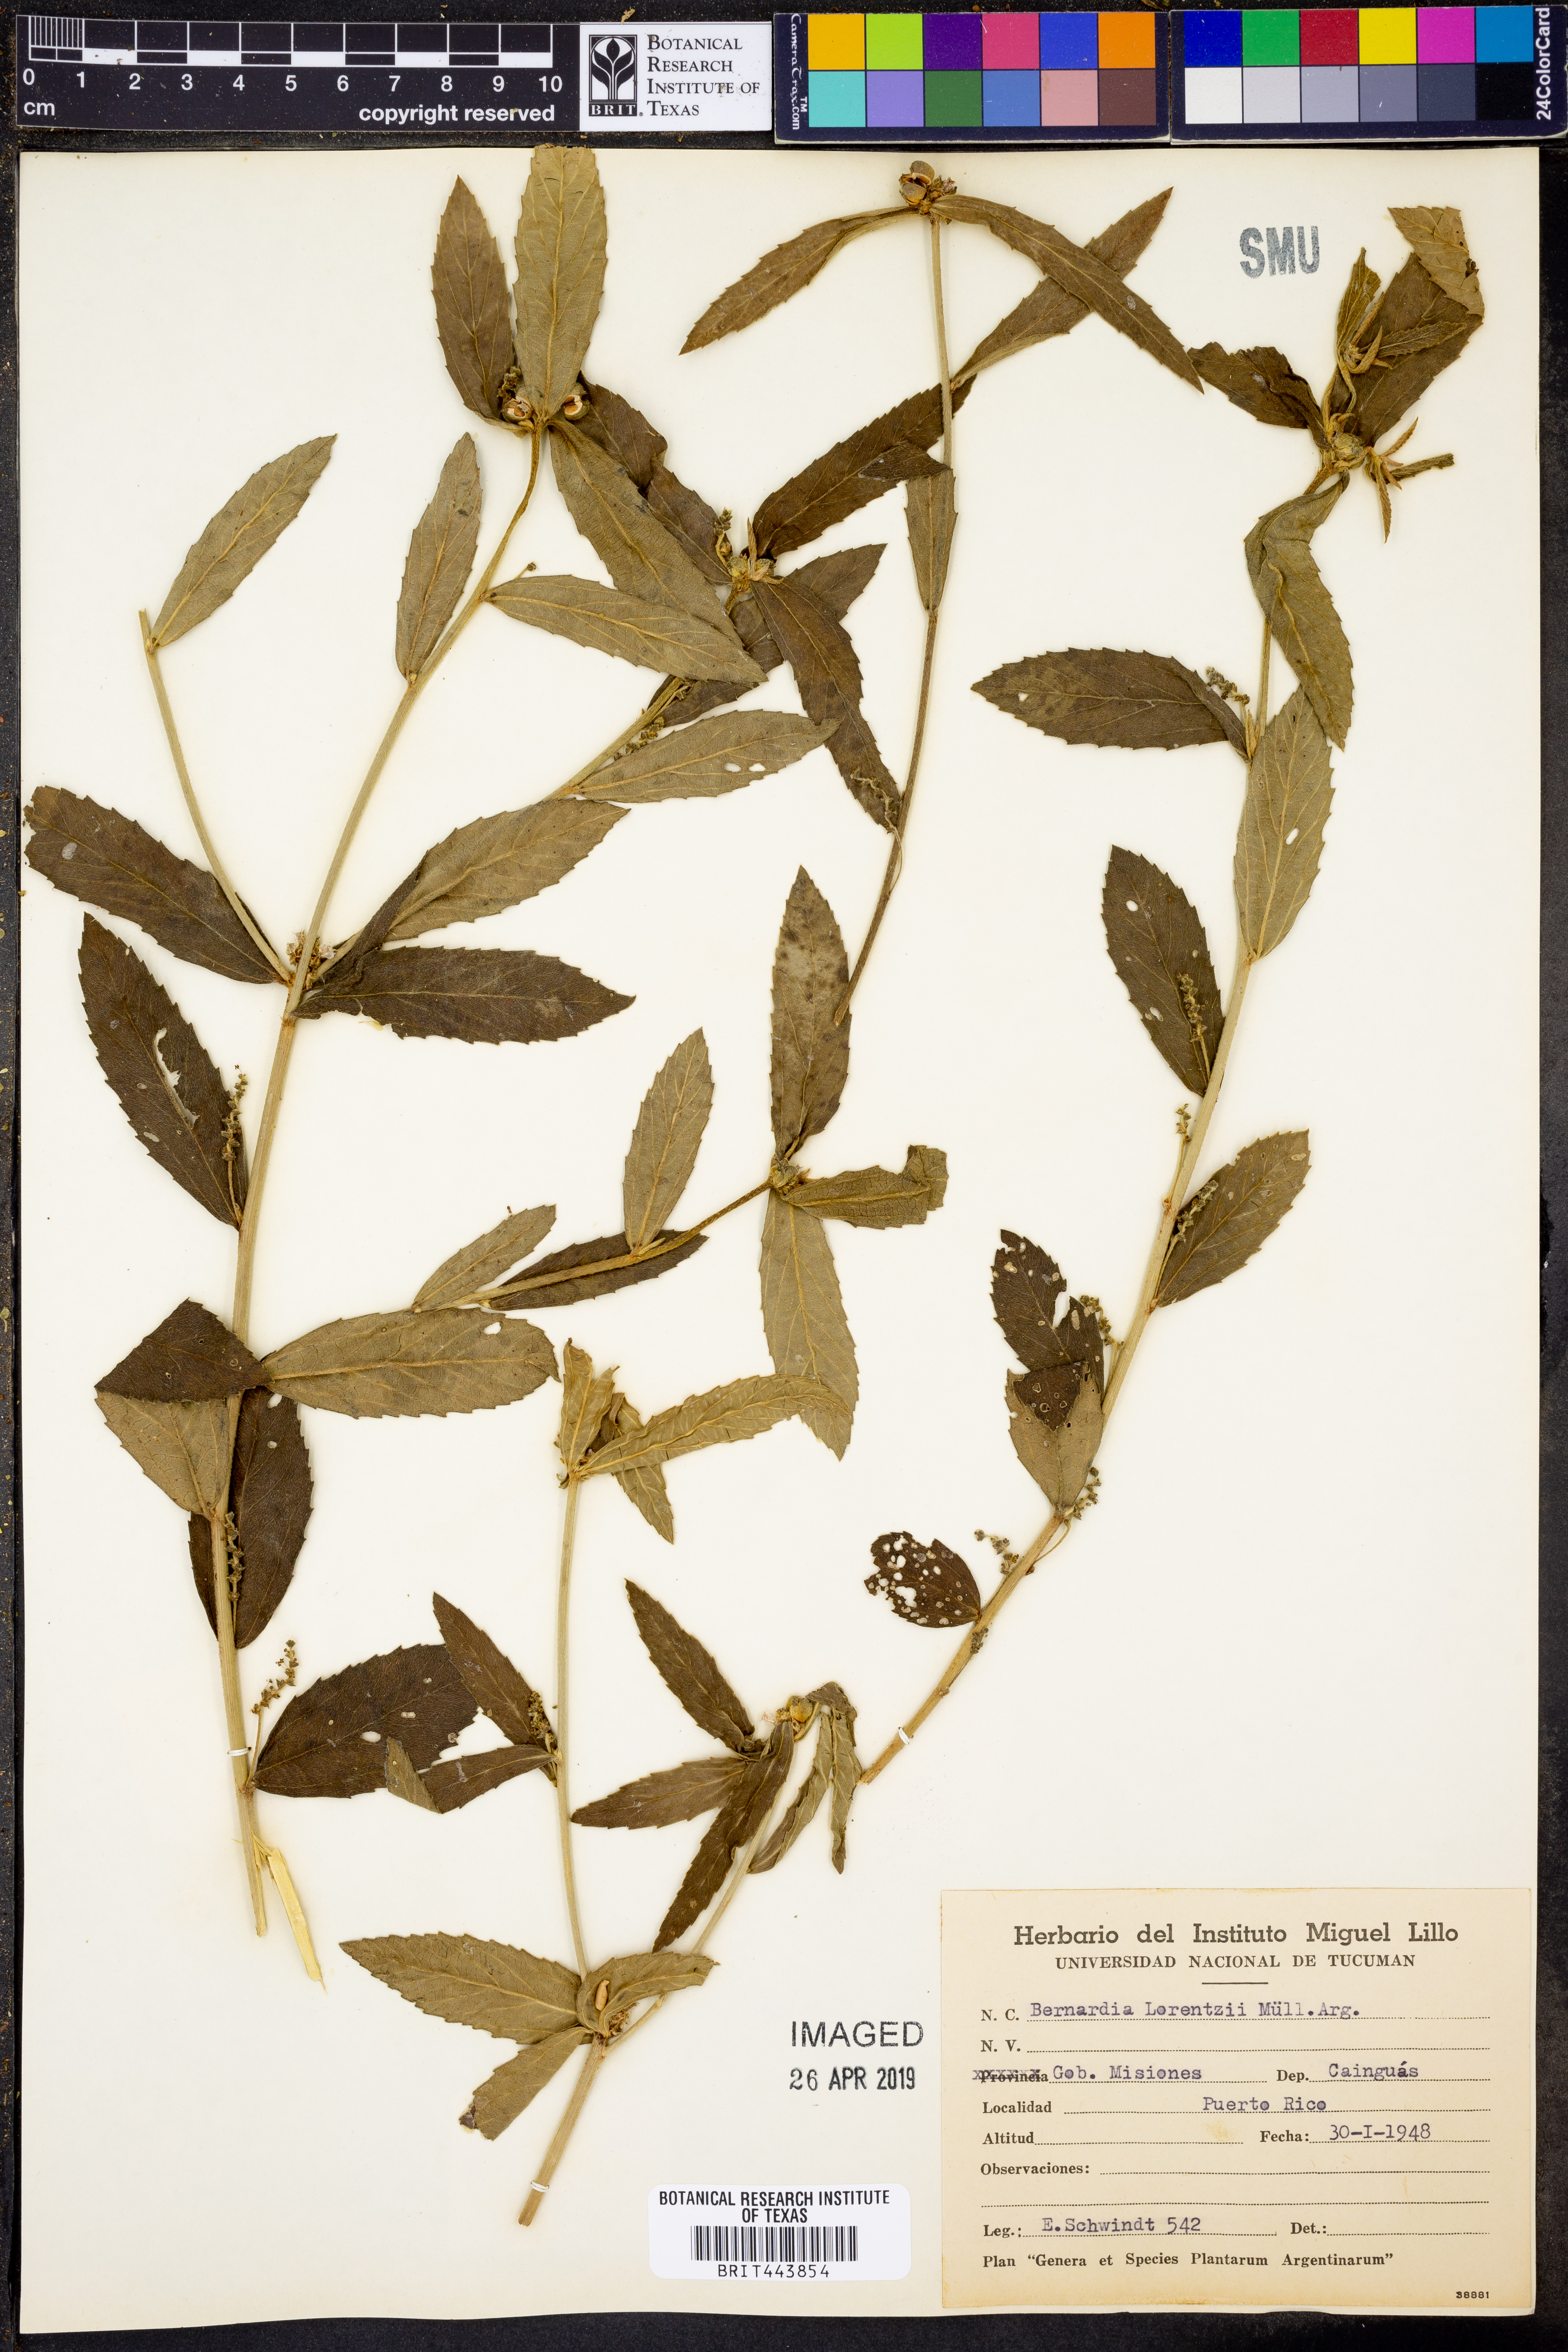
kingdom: Plantae
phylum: Tracheophyta
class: Magnoliopsida
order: Malpighiales
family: Euphorbiaceae
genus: Bernardia
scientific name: Bernardia multicaulis
